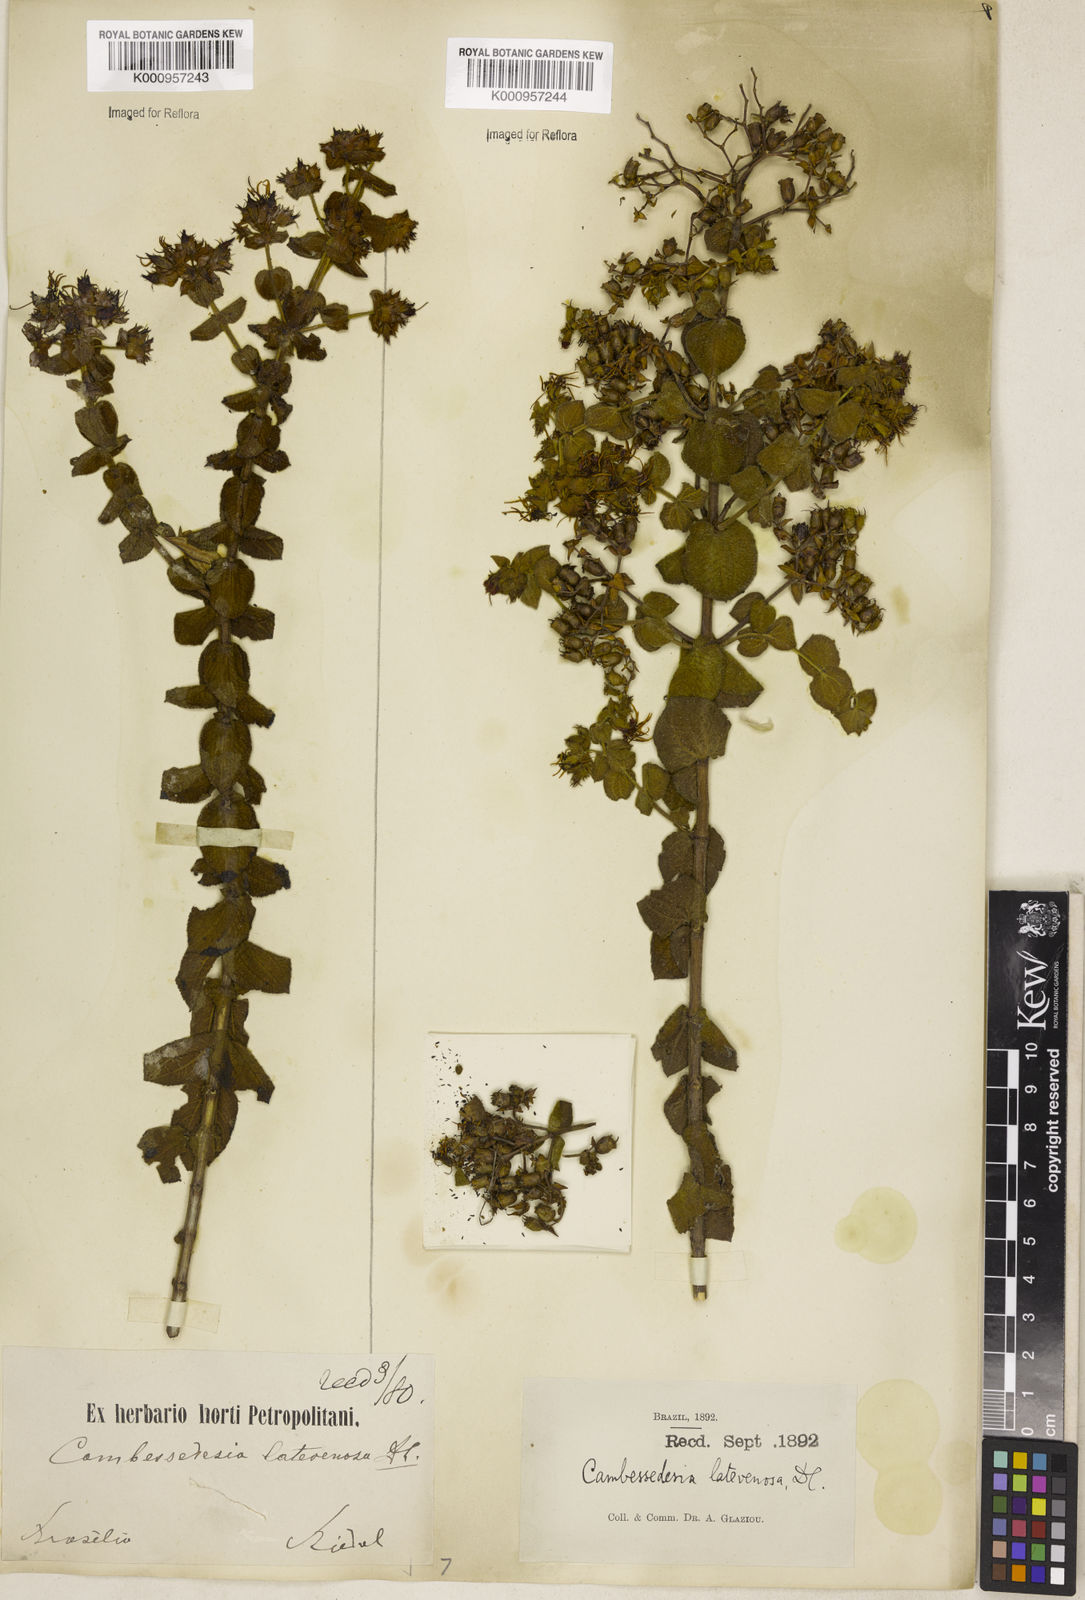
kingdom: Plantae
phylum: Tracheophyta
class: Magnoliopsida
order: Myrtales
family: Melastomataceae
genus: Cambessedesia
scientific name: Cambessedesia latevenosa
